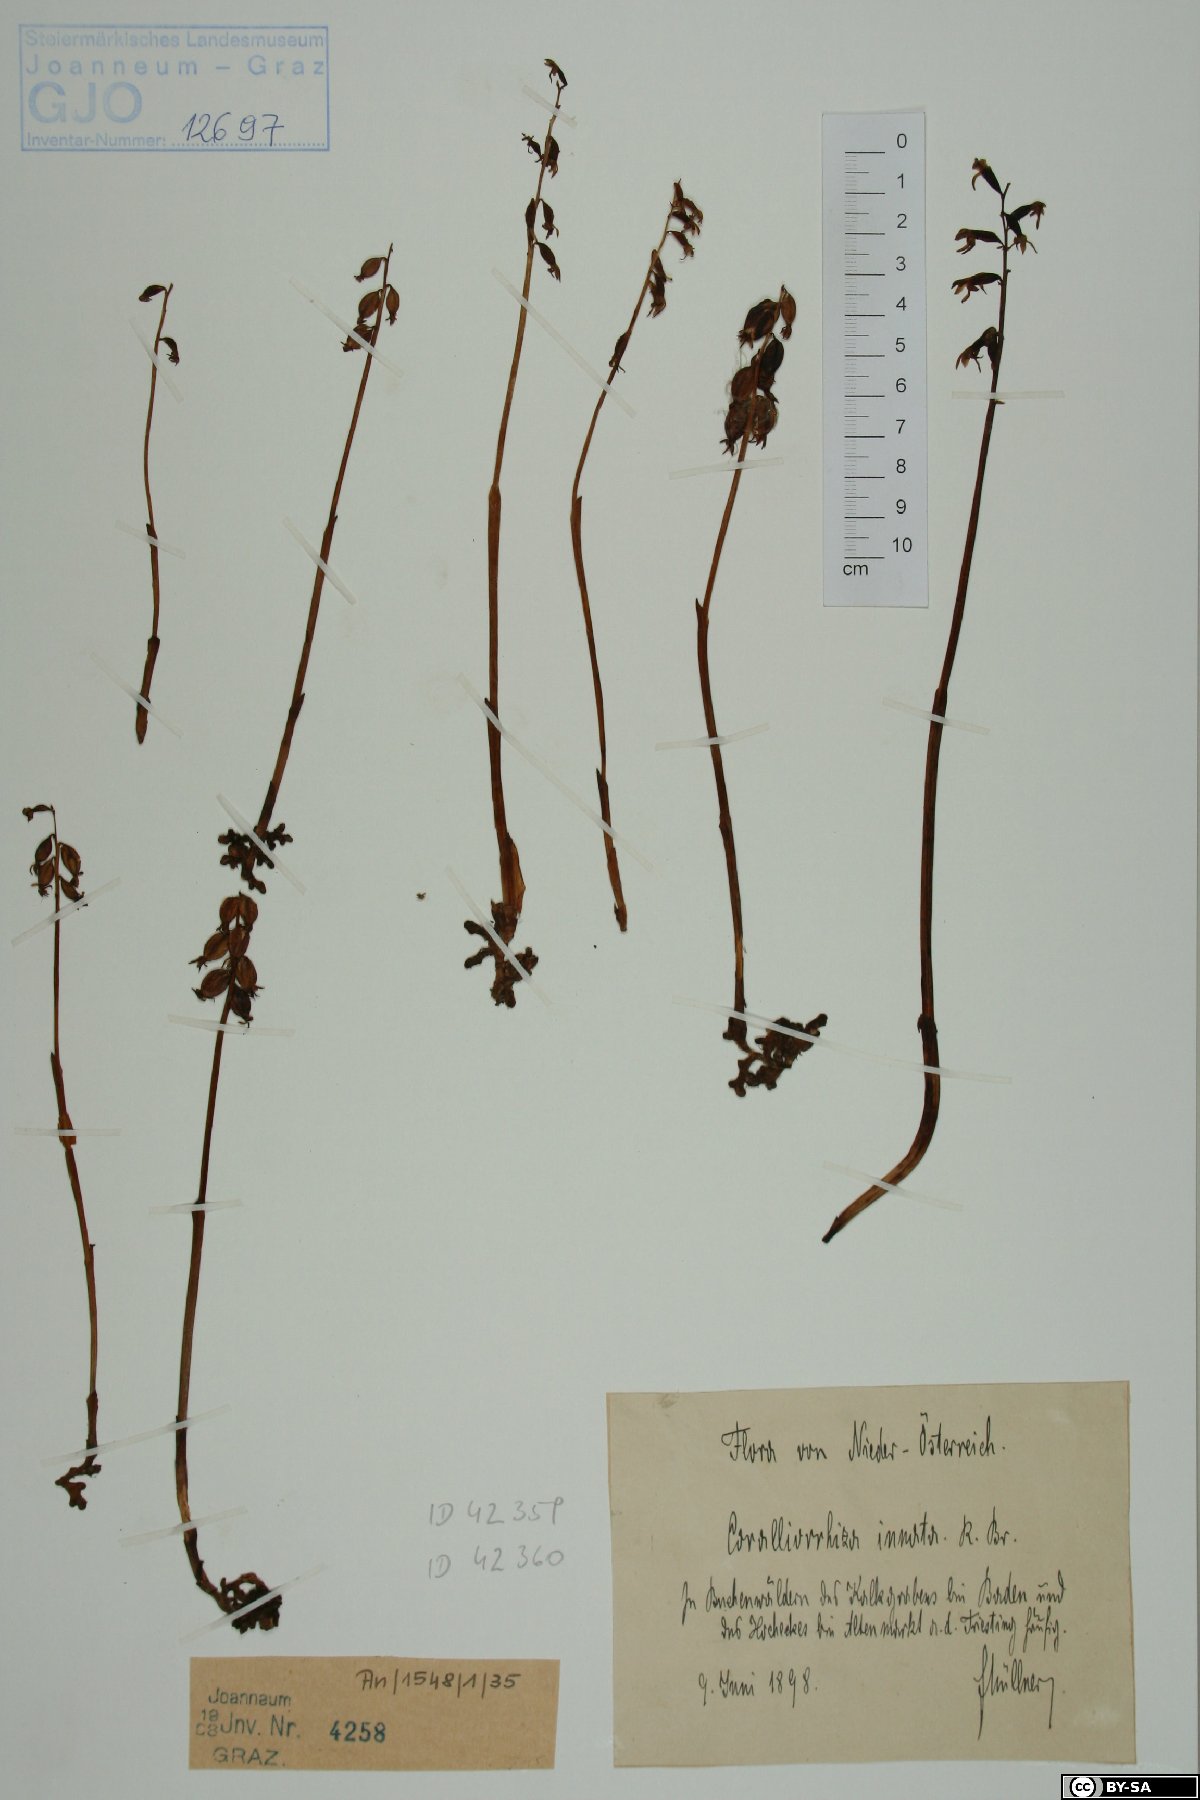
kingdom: Plantae
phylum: Tracheophyta
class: Liliopsida
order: Asparagales
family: Orchidaceae
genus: Corallorhiza
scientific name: Corallorhiza trifida
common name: Yellow coralroot
